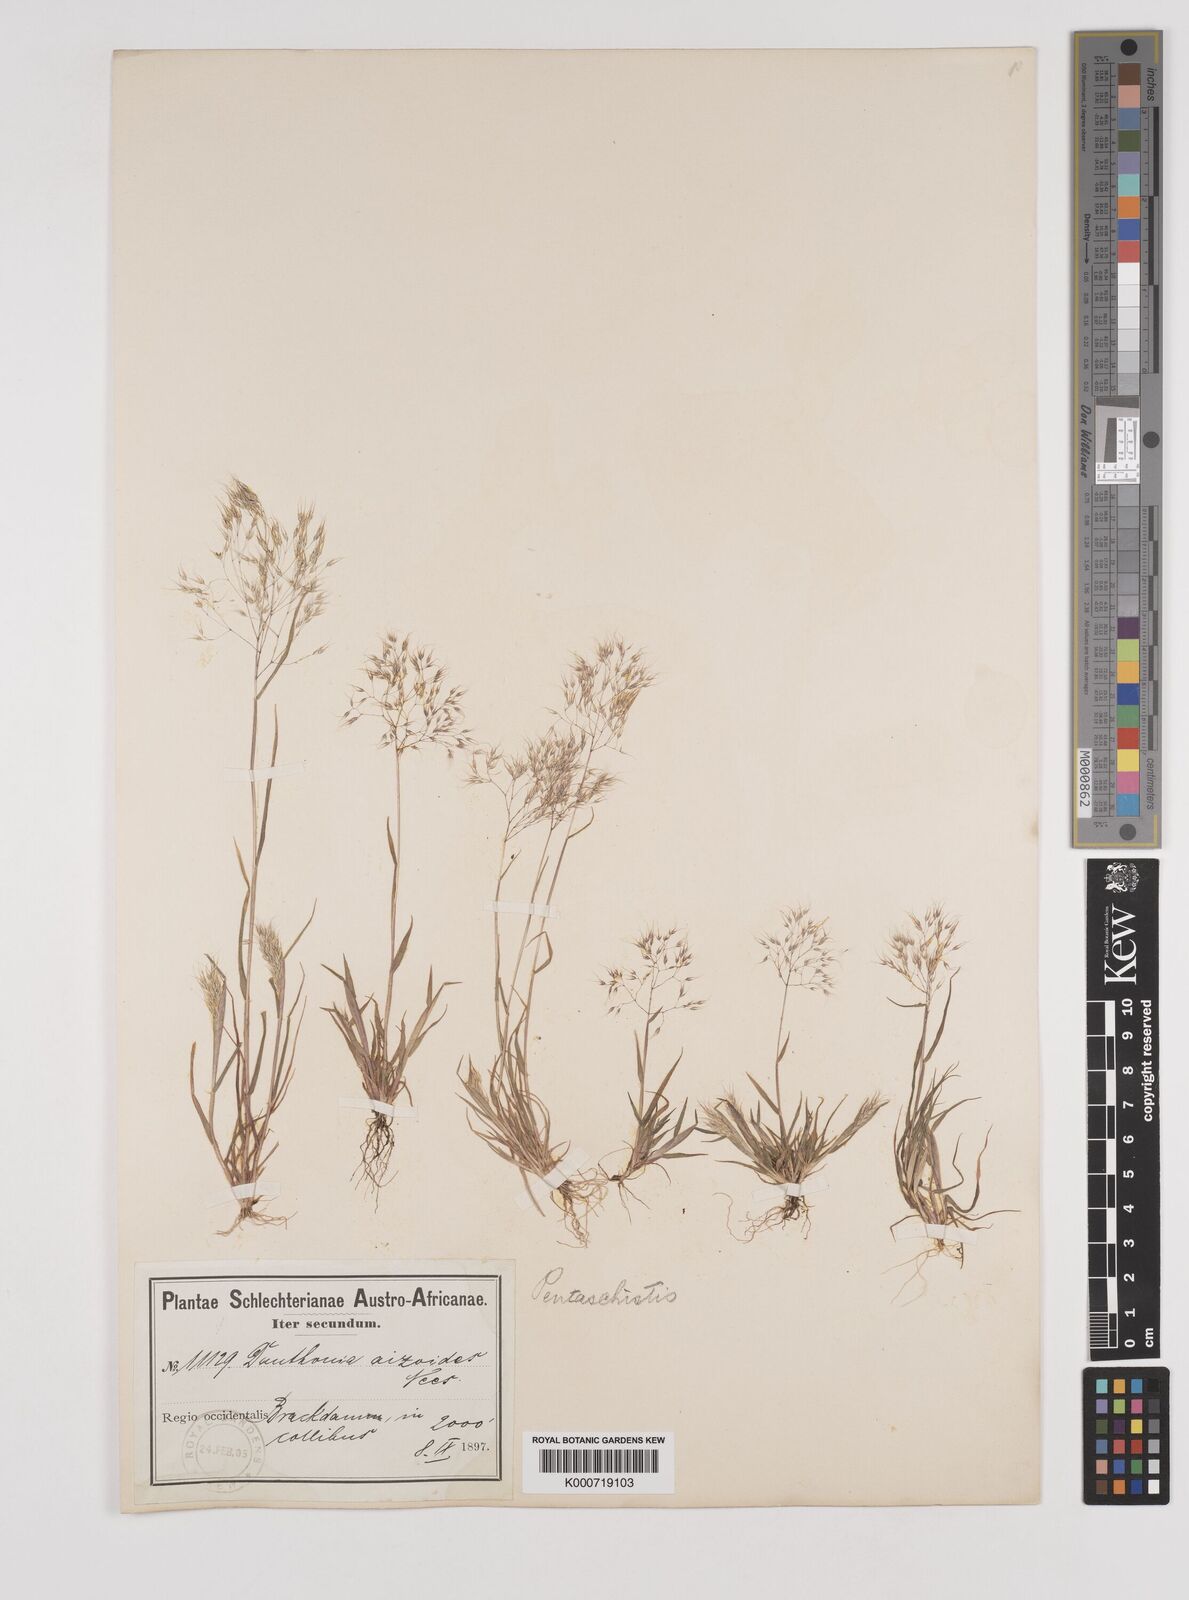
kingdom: Plantae
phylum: Tracheophyta
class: Liliopsida
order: Poales
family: Poaceae
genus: Pentameris
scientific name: Pentameris airoides
